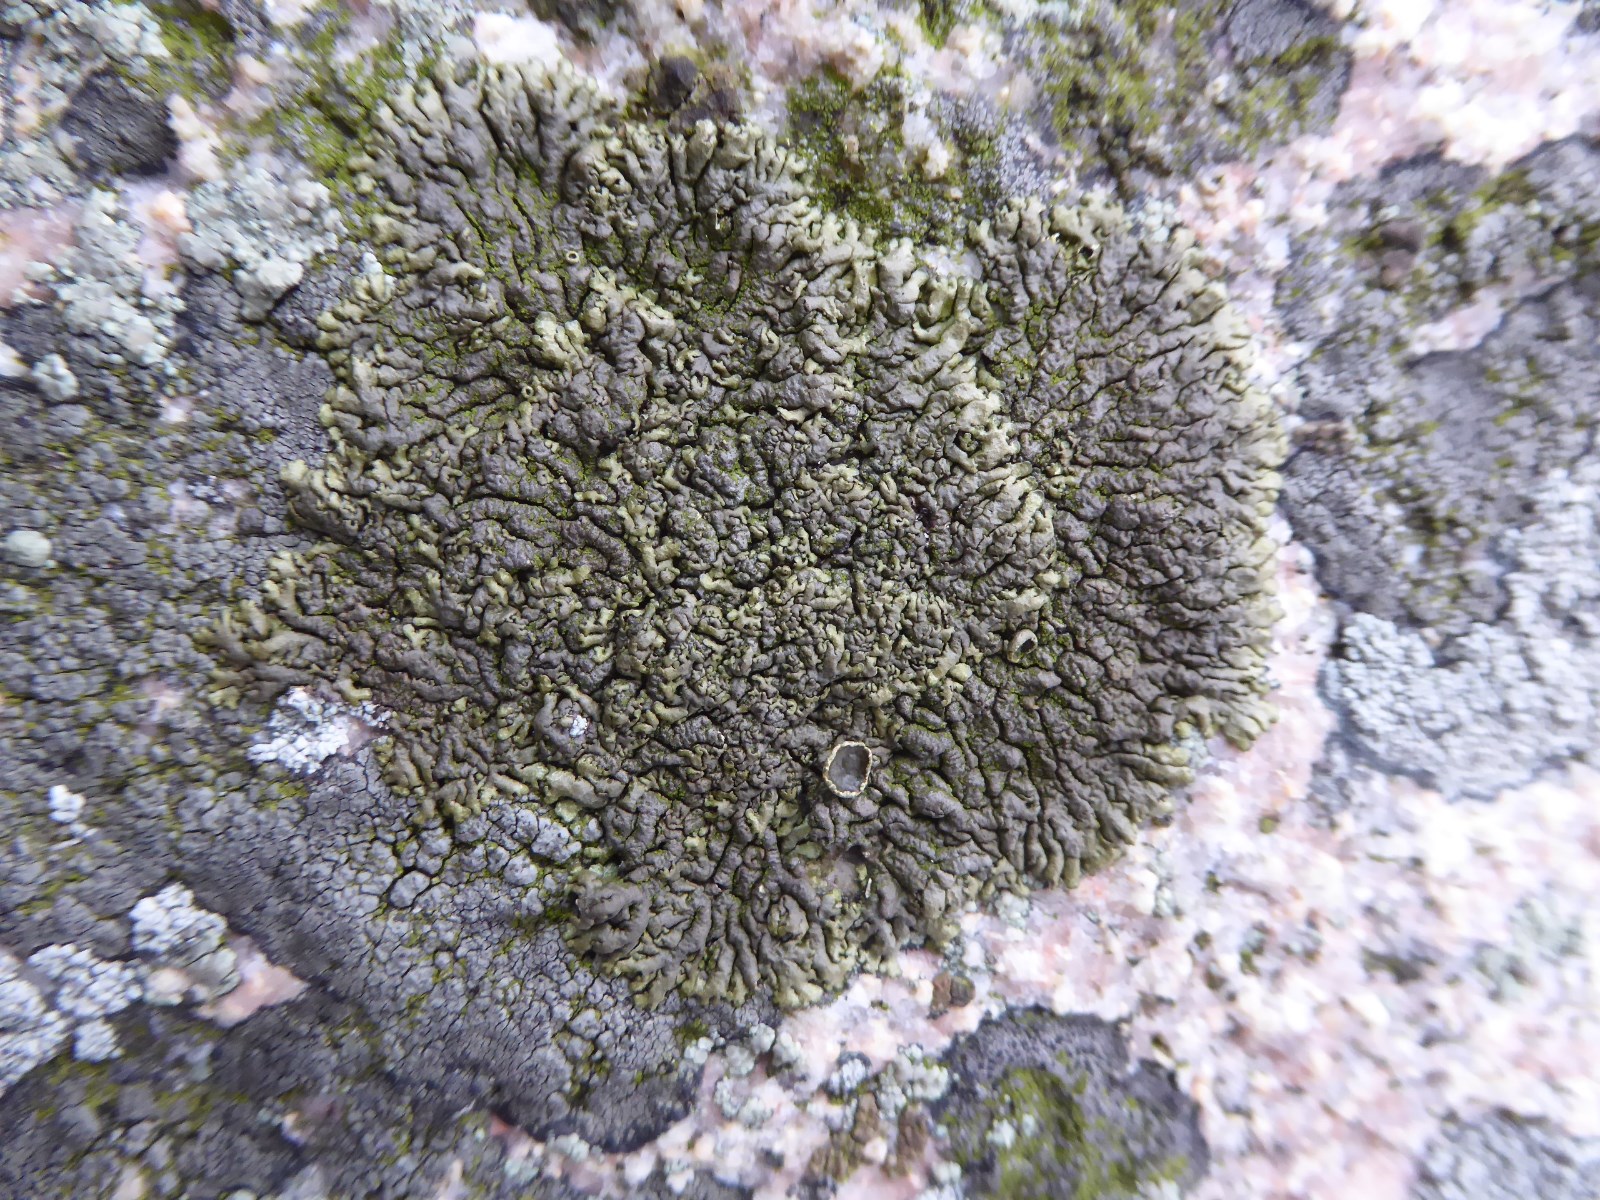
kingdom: Fungi
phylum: Ascomycota
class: Lecanoromycetes
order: Lecanorales
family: Parmeliaceae
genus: Xanthoparmelia
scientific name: Xanthoparmelia pulla
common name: mørkebrun skållav
